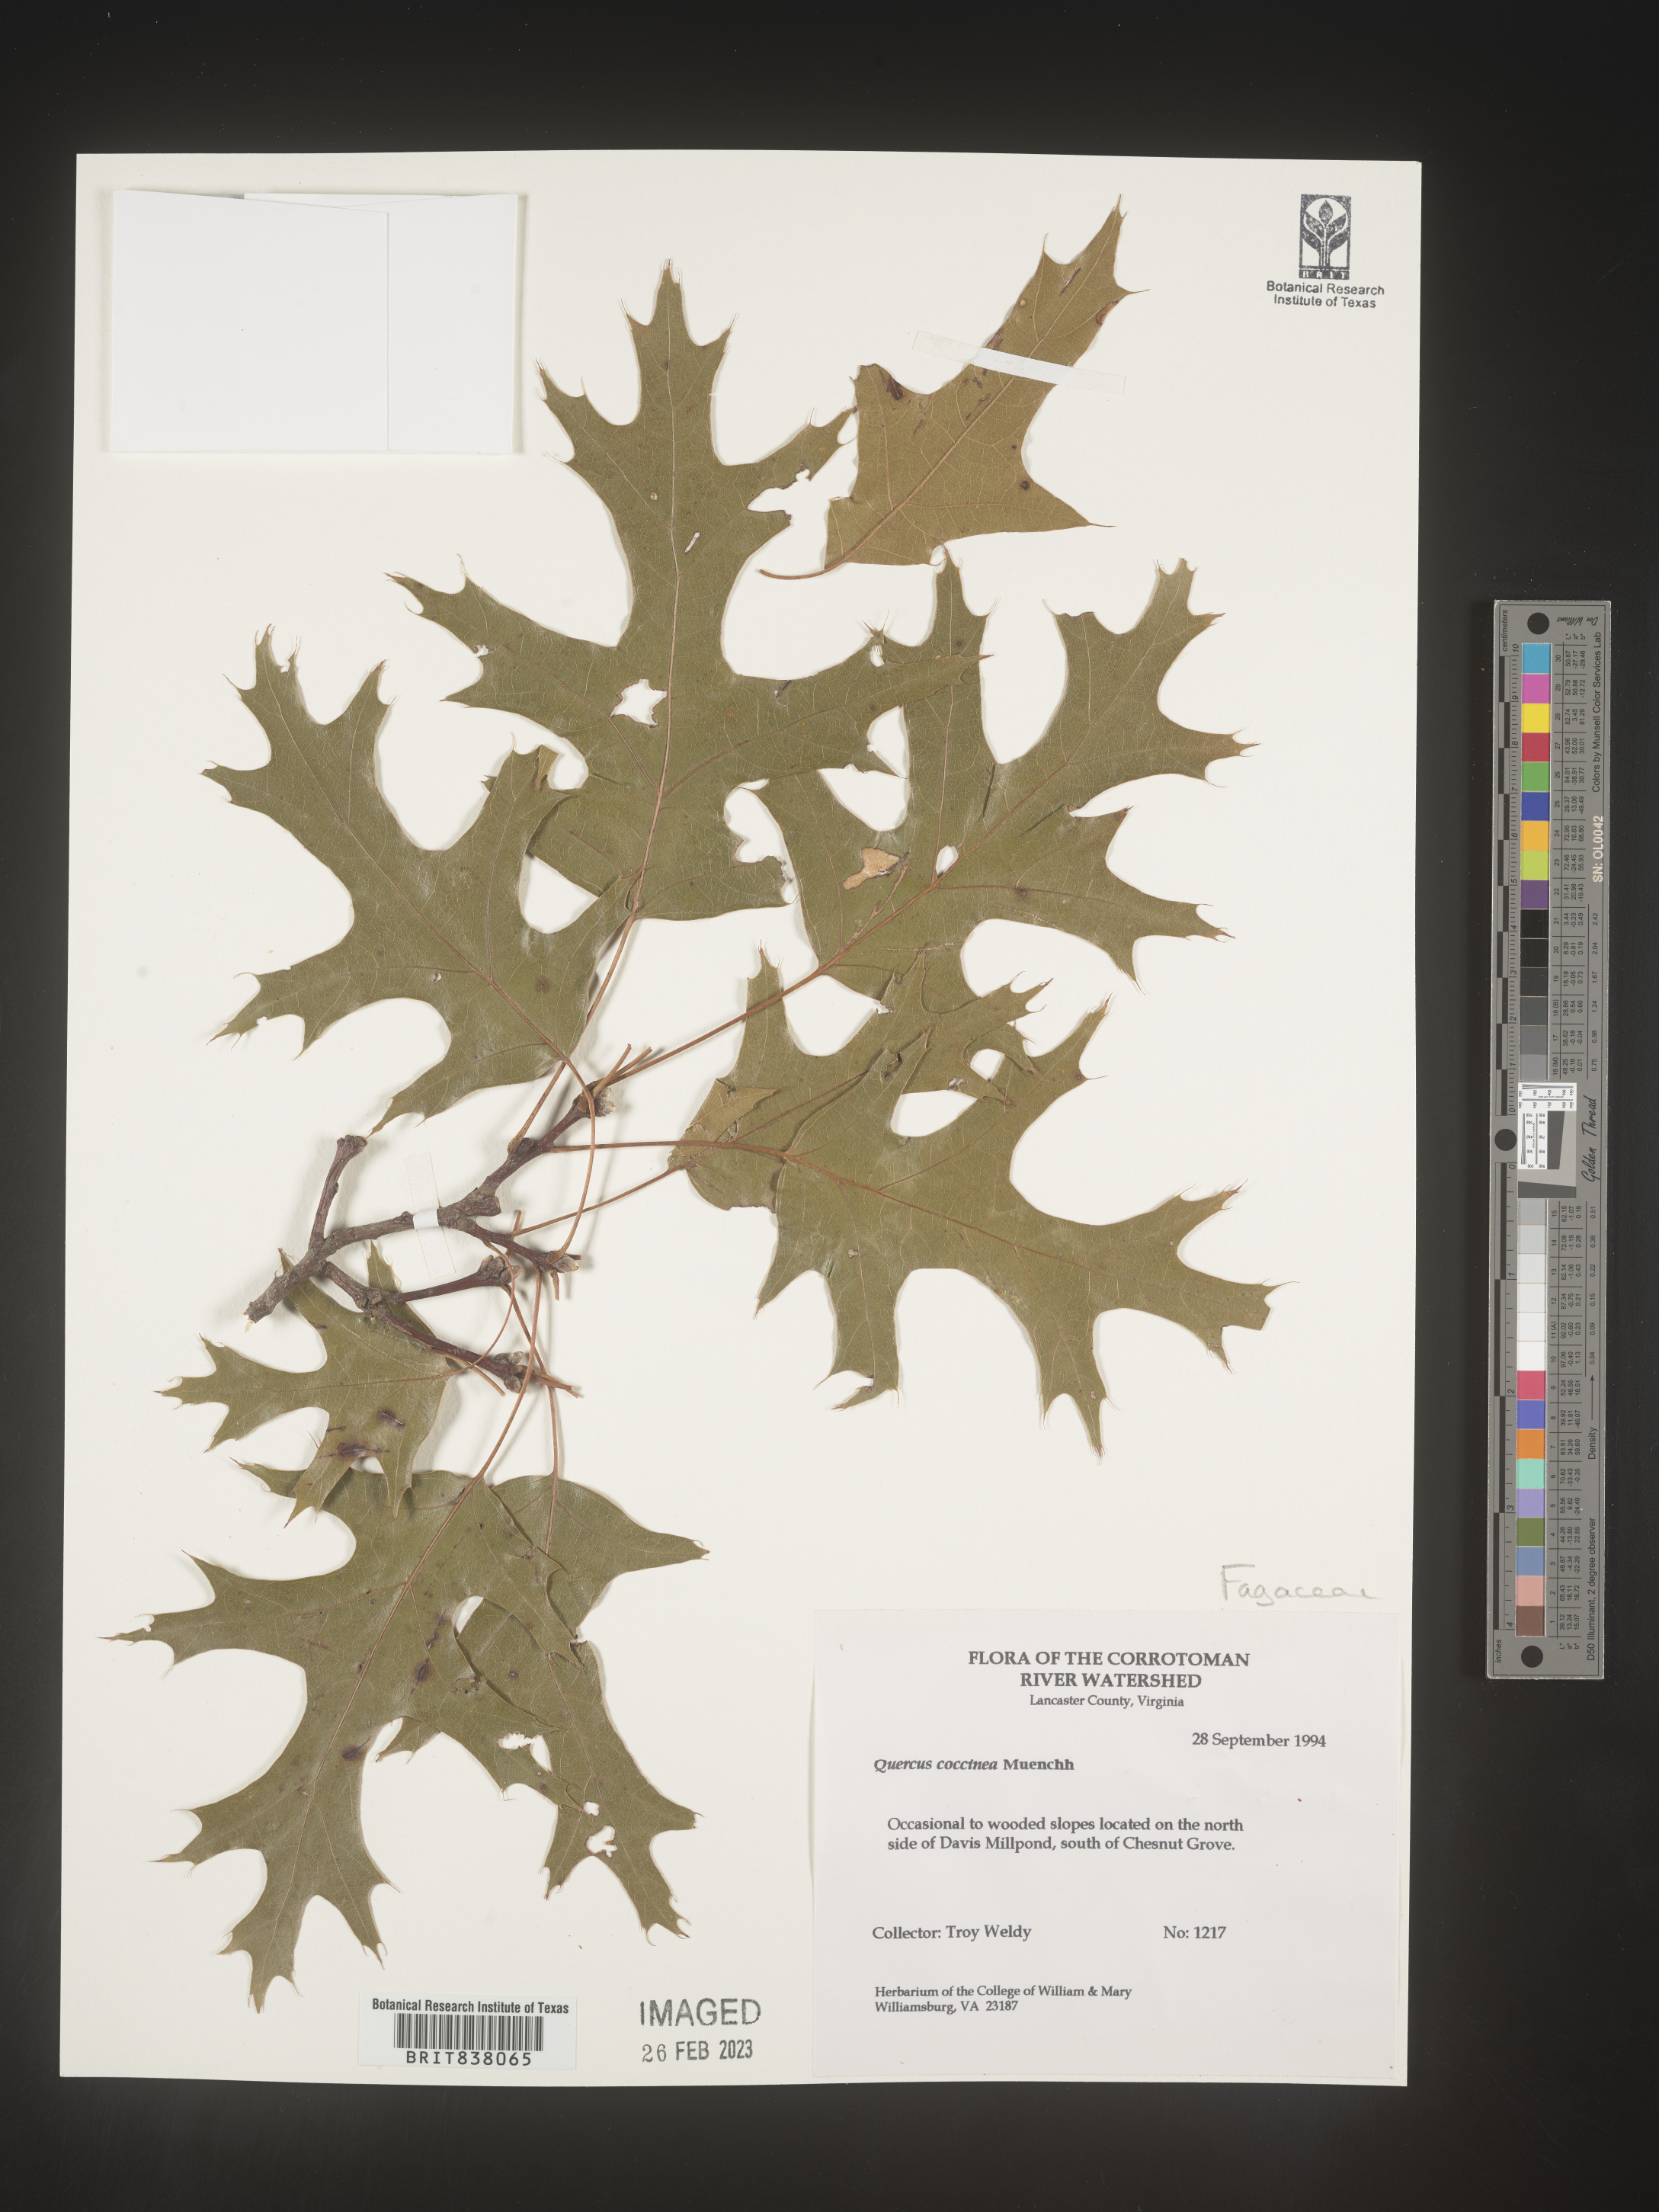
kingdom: Plantae
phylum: Tracheophyta
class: Magnoliopsida
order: Fagales
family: Fagaceae
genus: Quercus
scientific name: Quercus coccinea
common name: Scarlet oak
